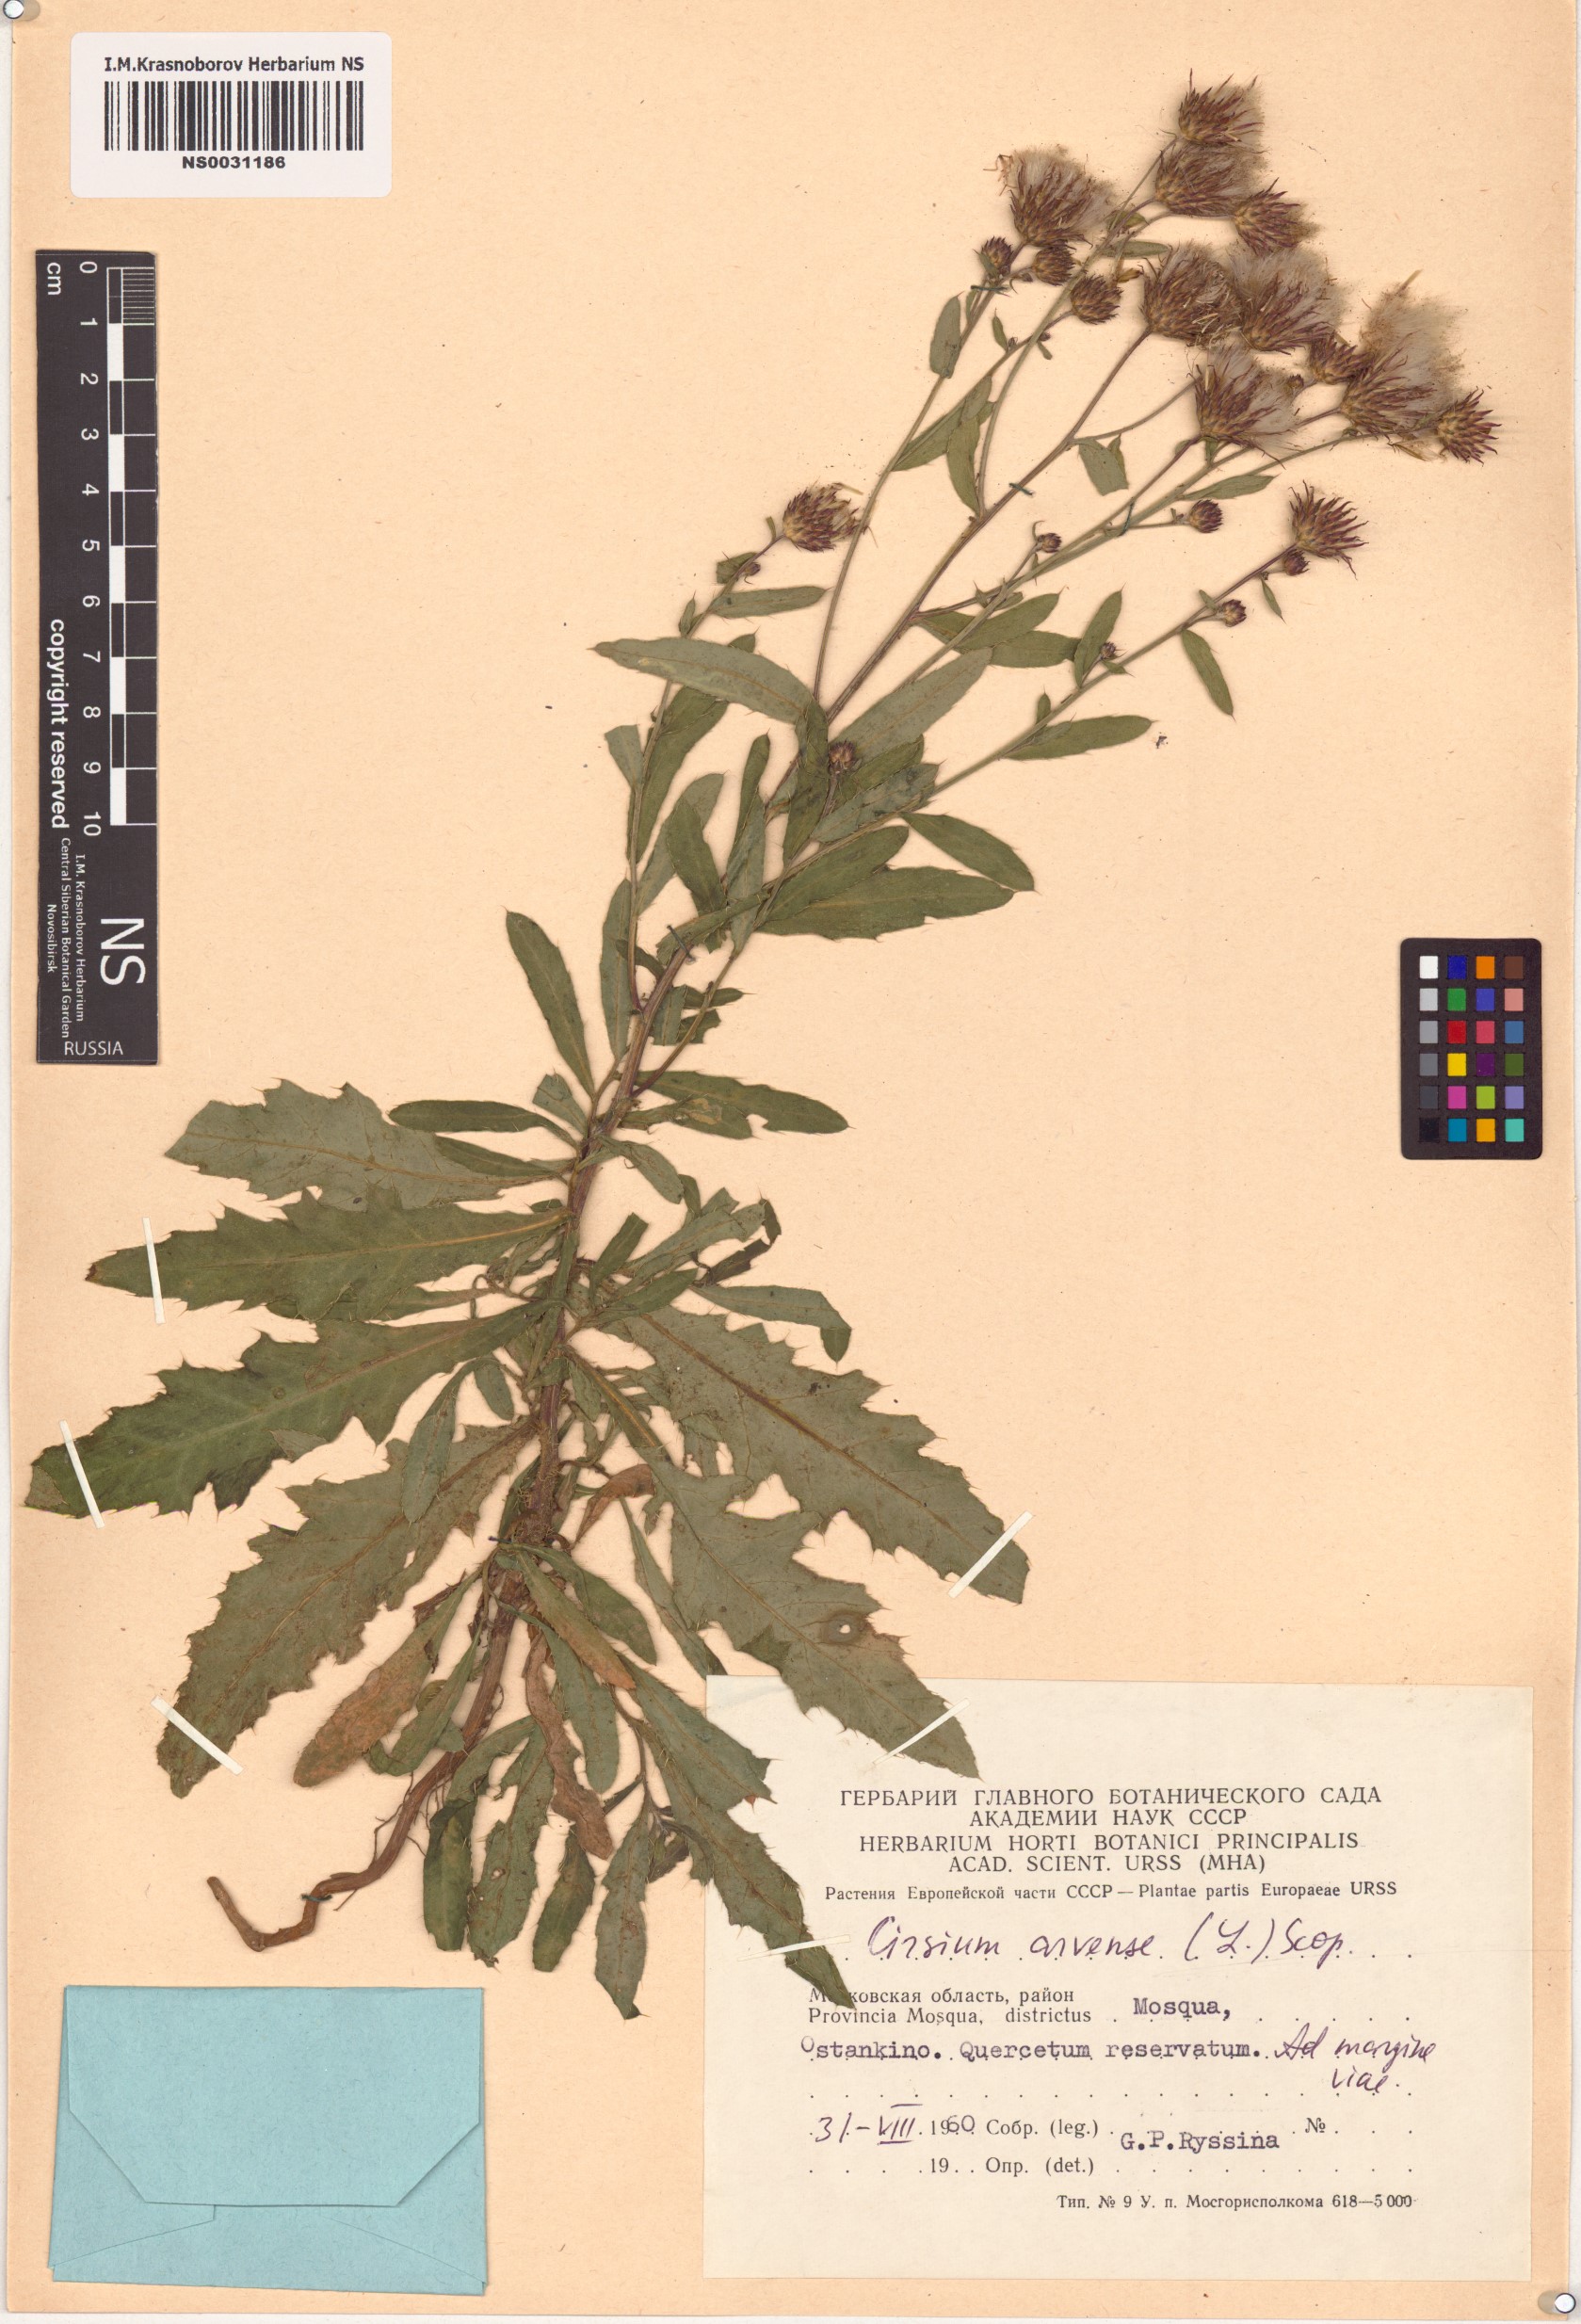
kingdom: Plantae
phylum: Tracheophyta
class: Magnoliopsida
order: Asterales
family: Asteraceae
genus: Cirsium
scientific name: Cirsium arvense
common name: Creeping thistle
